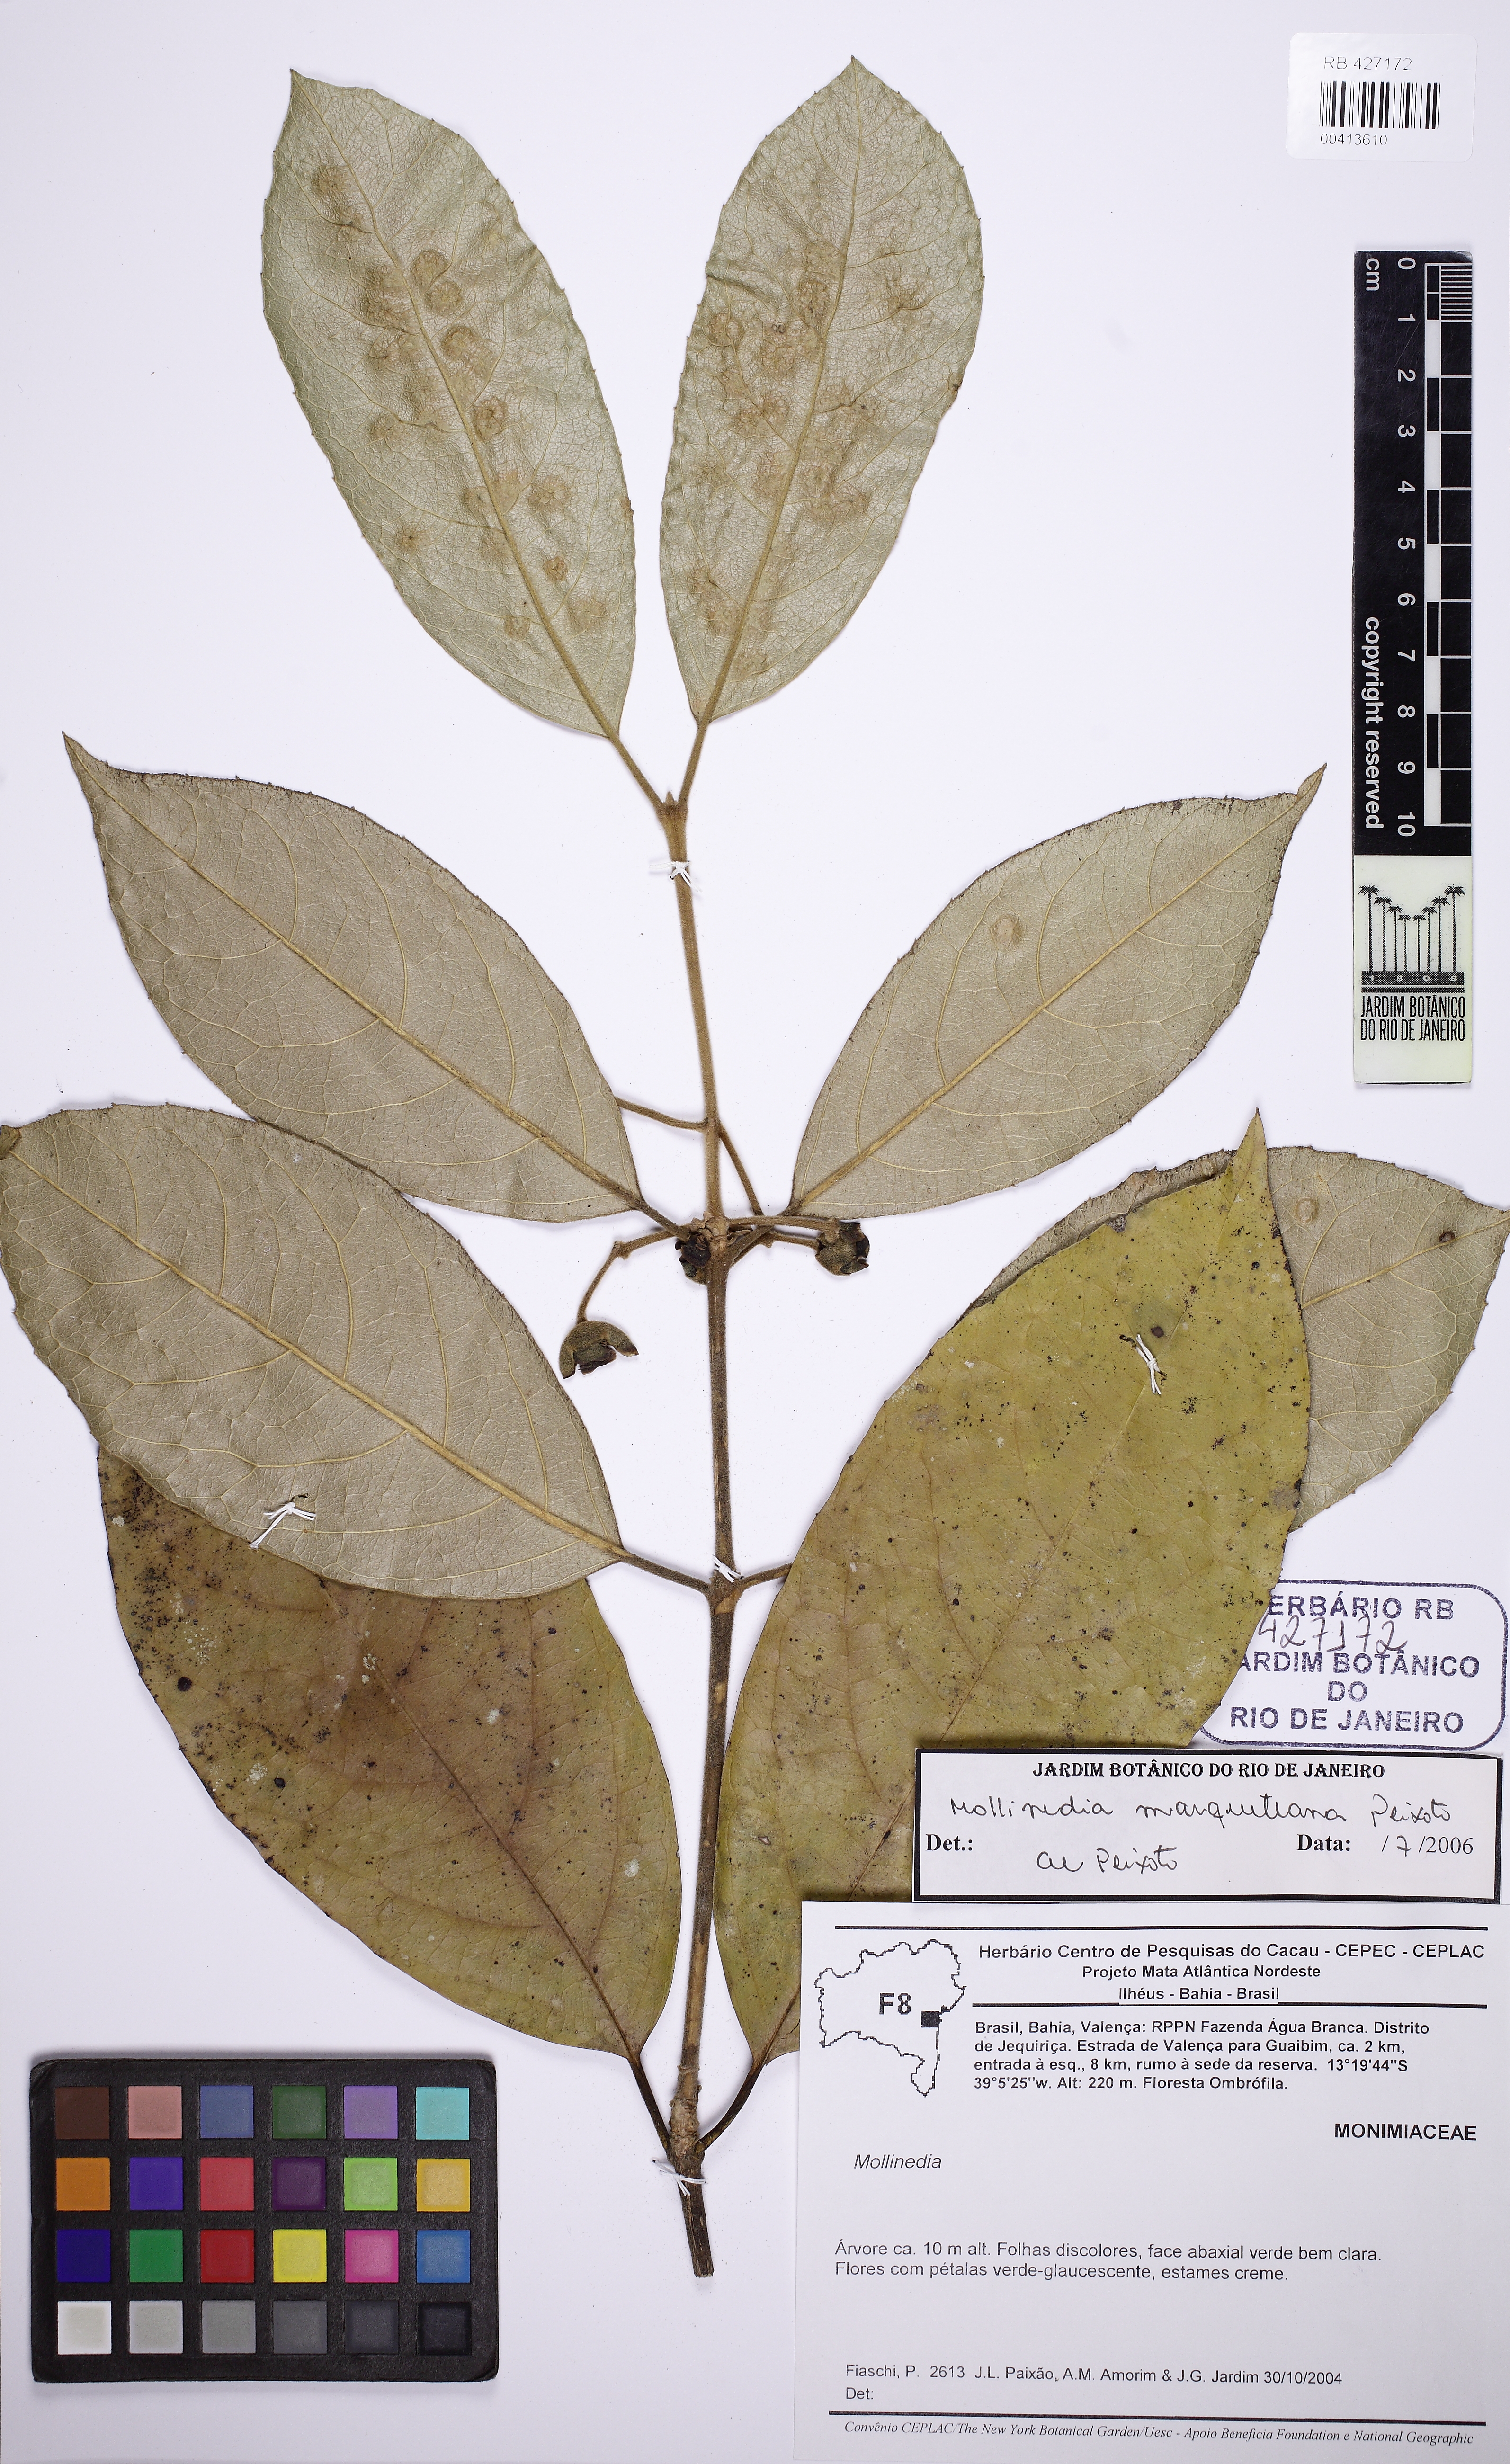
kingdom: Plantae
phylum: Tracheophyta
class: Magnoliopsida
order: Laurales
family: Monimiaceae
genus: Mollinedia
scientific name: Mollinedia marqueteana
